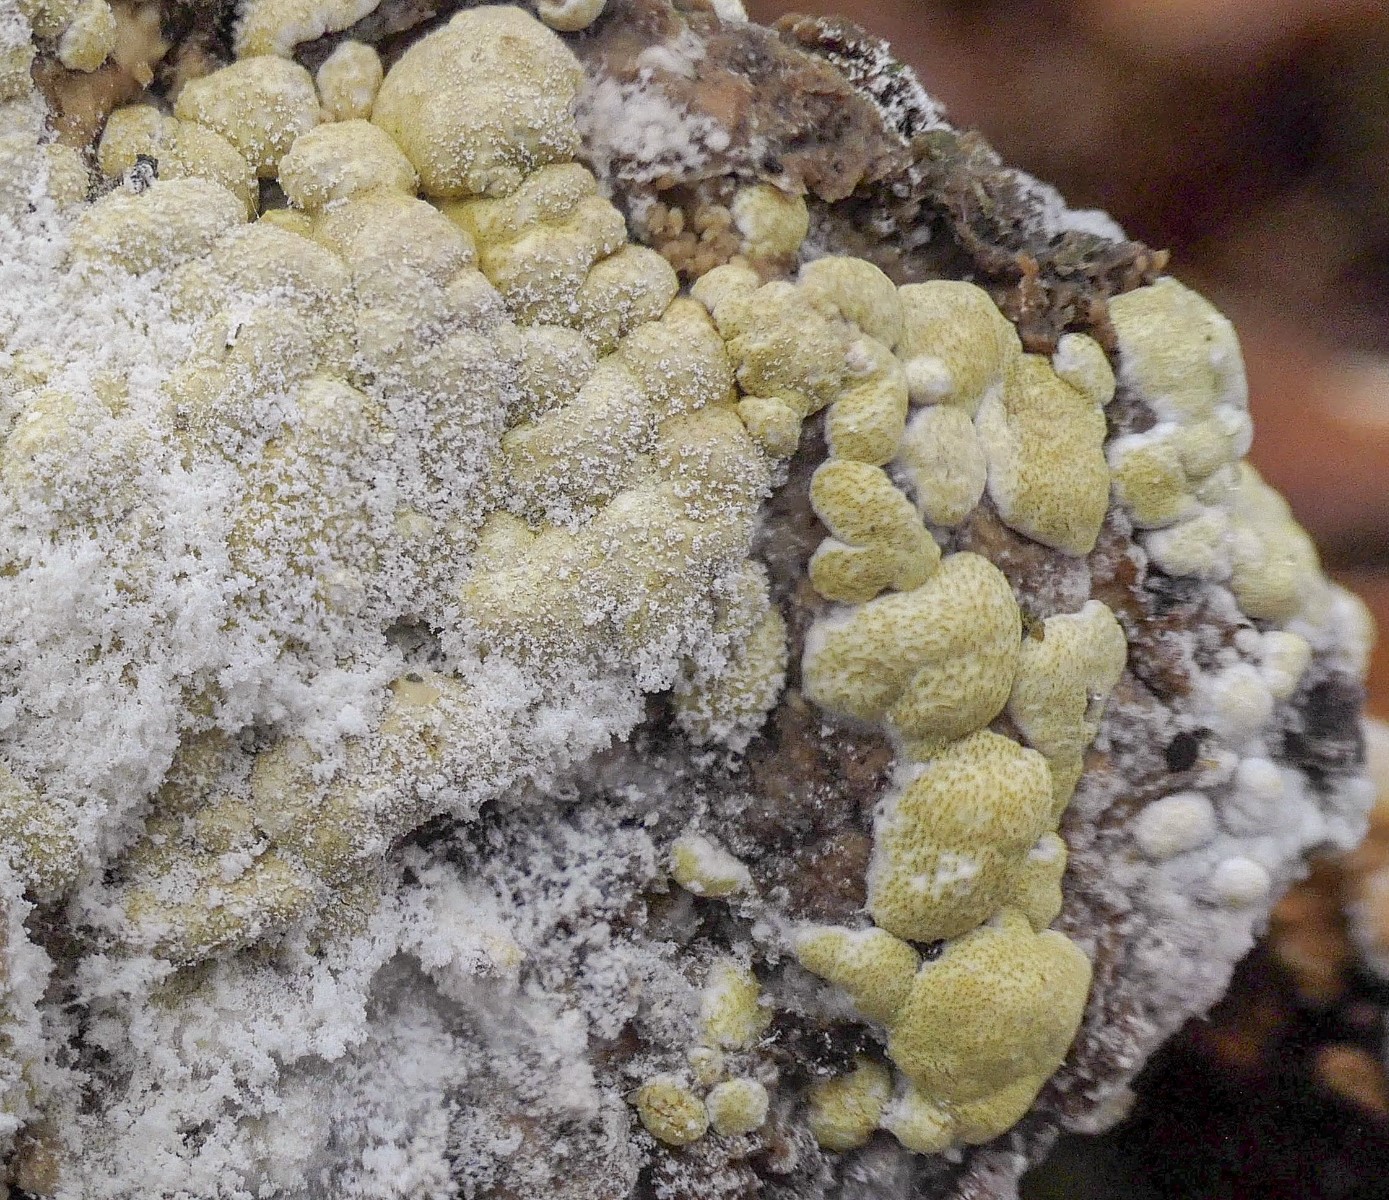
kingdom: Fungi
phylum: Ascomycota
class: Sordariomycetes
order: Hypocreales
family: Hypocreaceae
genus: Trichoderma
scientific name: Trichoderma pulvinatum
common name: snyltende kødkerne
